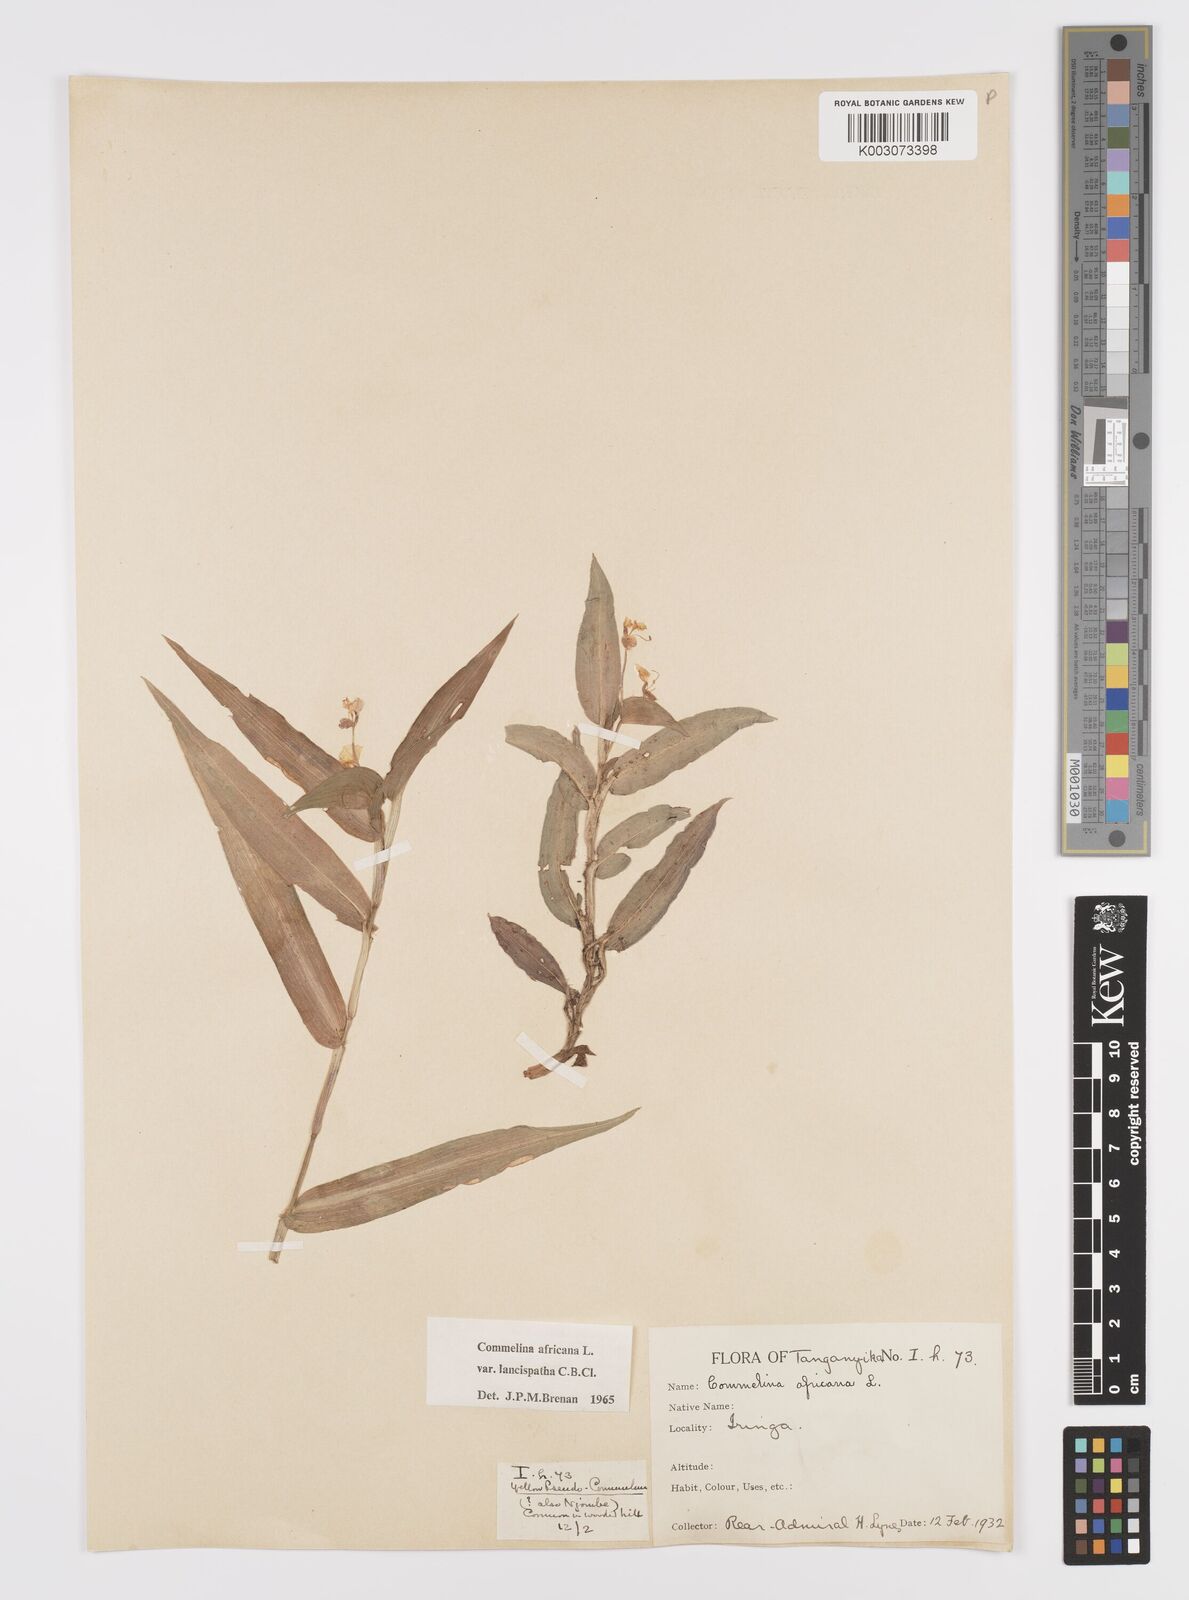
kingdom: Plantae
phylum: Tracheophyta
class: Liliopsida
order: Commelinales
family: Commelinaceae
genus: Commelina
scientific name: Commelina africana
